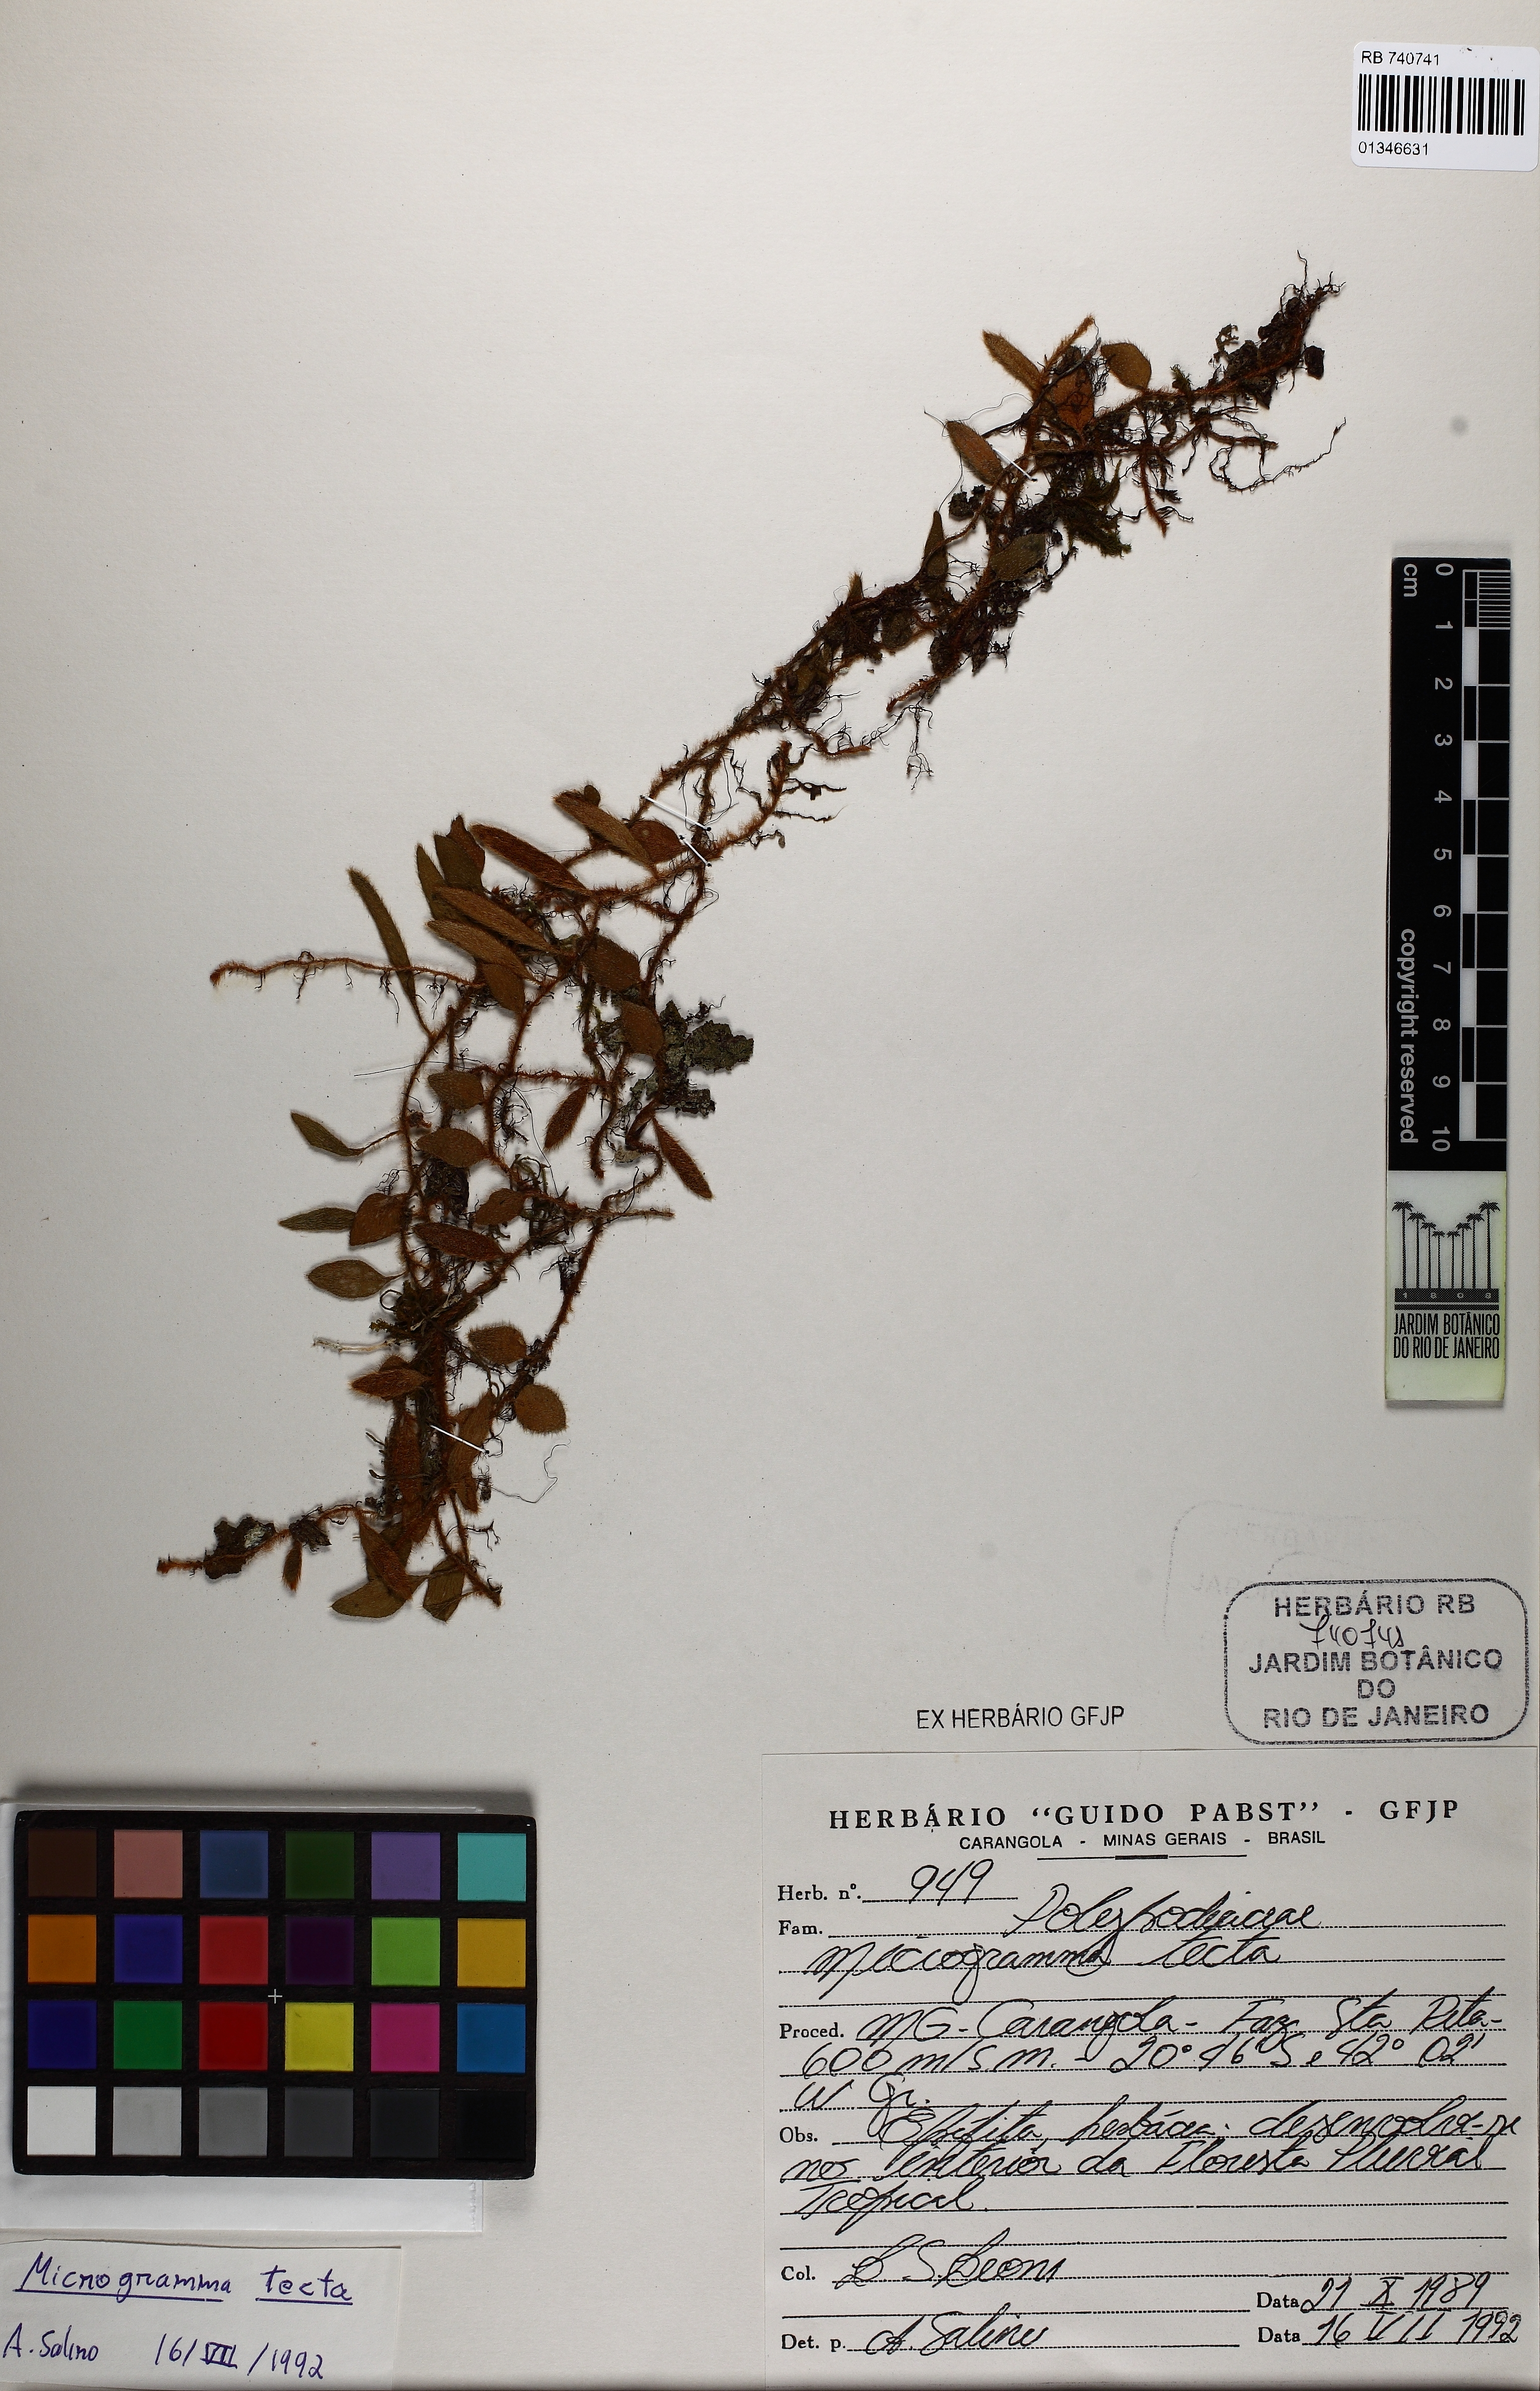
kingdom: Plantae
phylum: Tracheophyta
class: Polypodiopsida
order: Polypodiales
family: Polypodiaceae
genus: Microgramma
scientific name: Microgramma tecta
